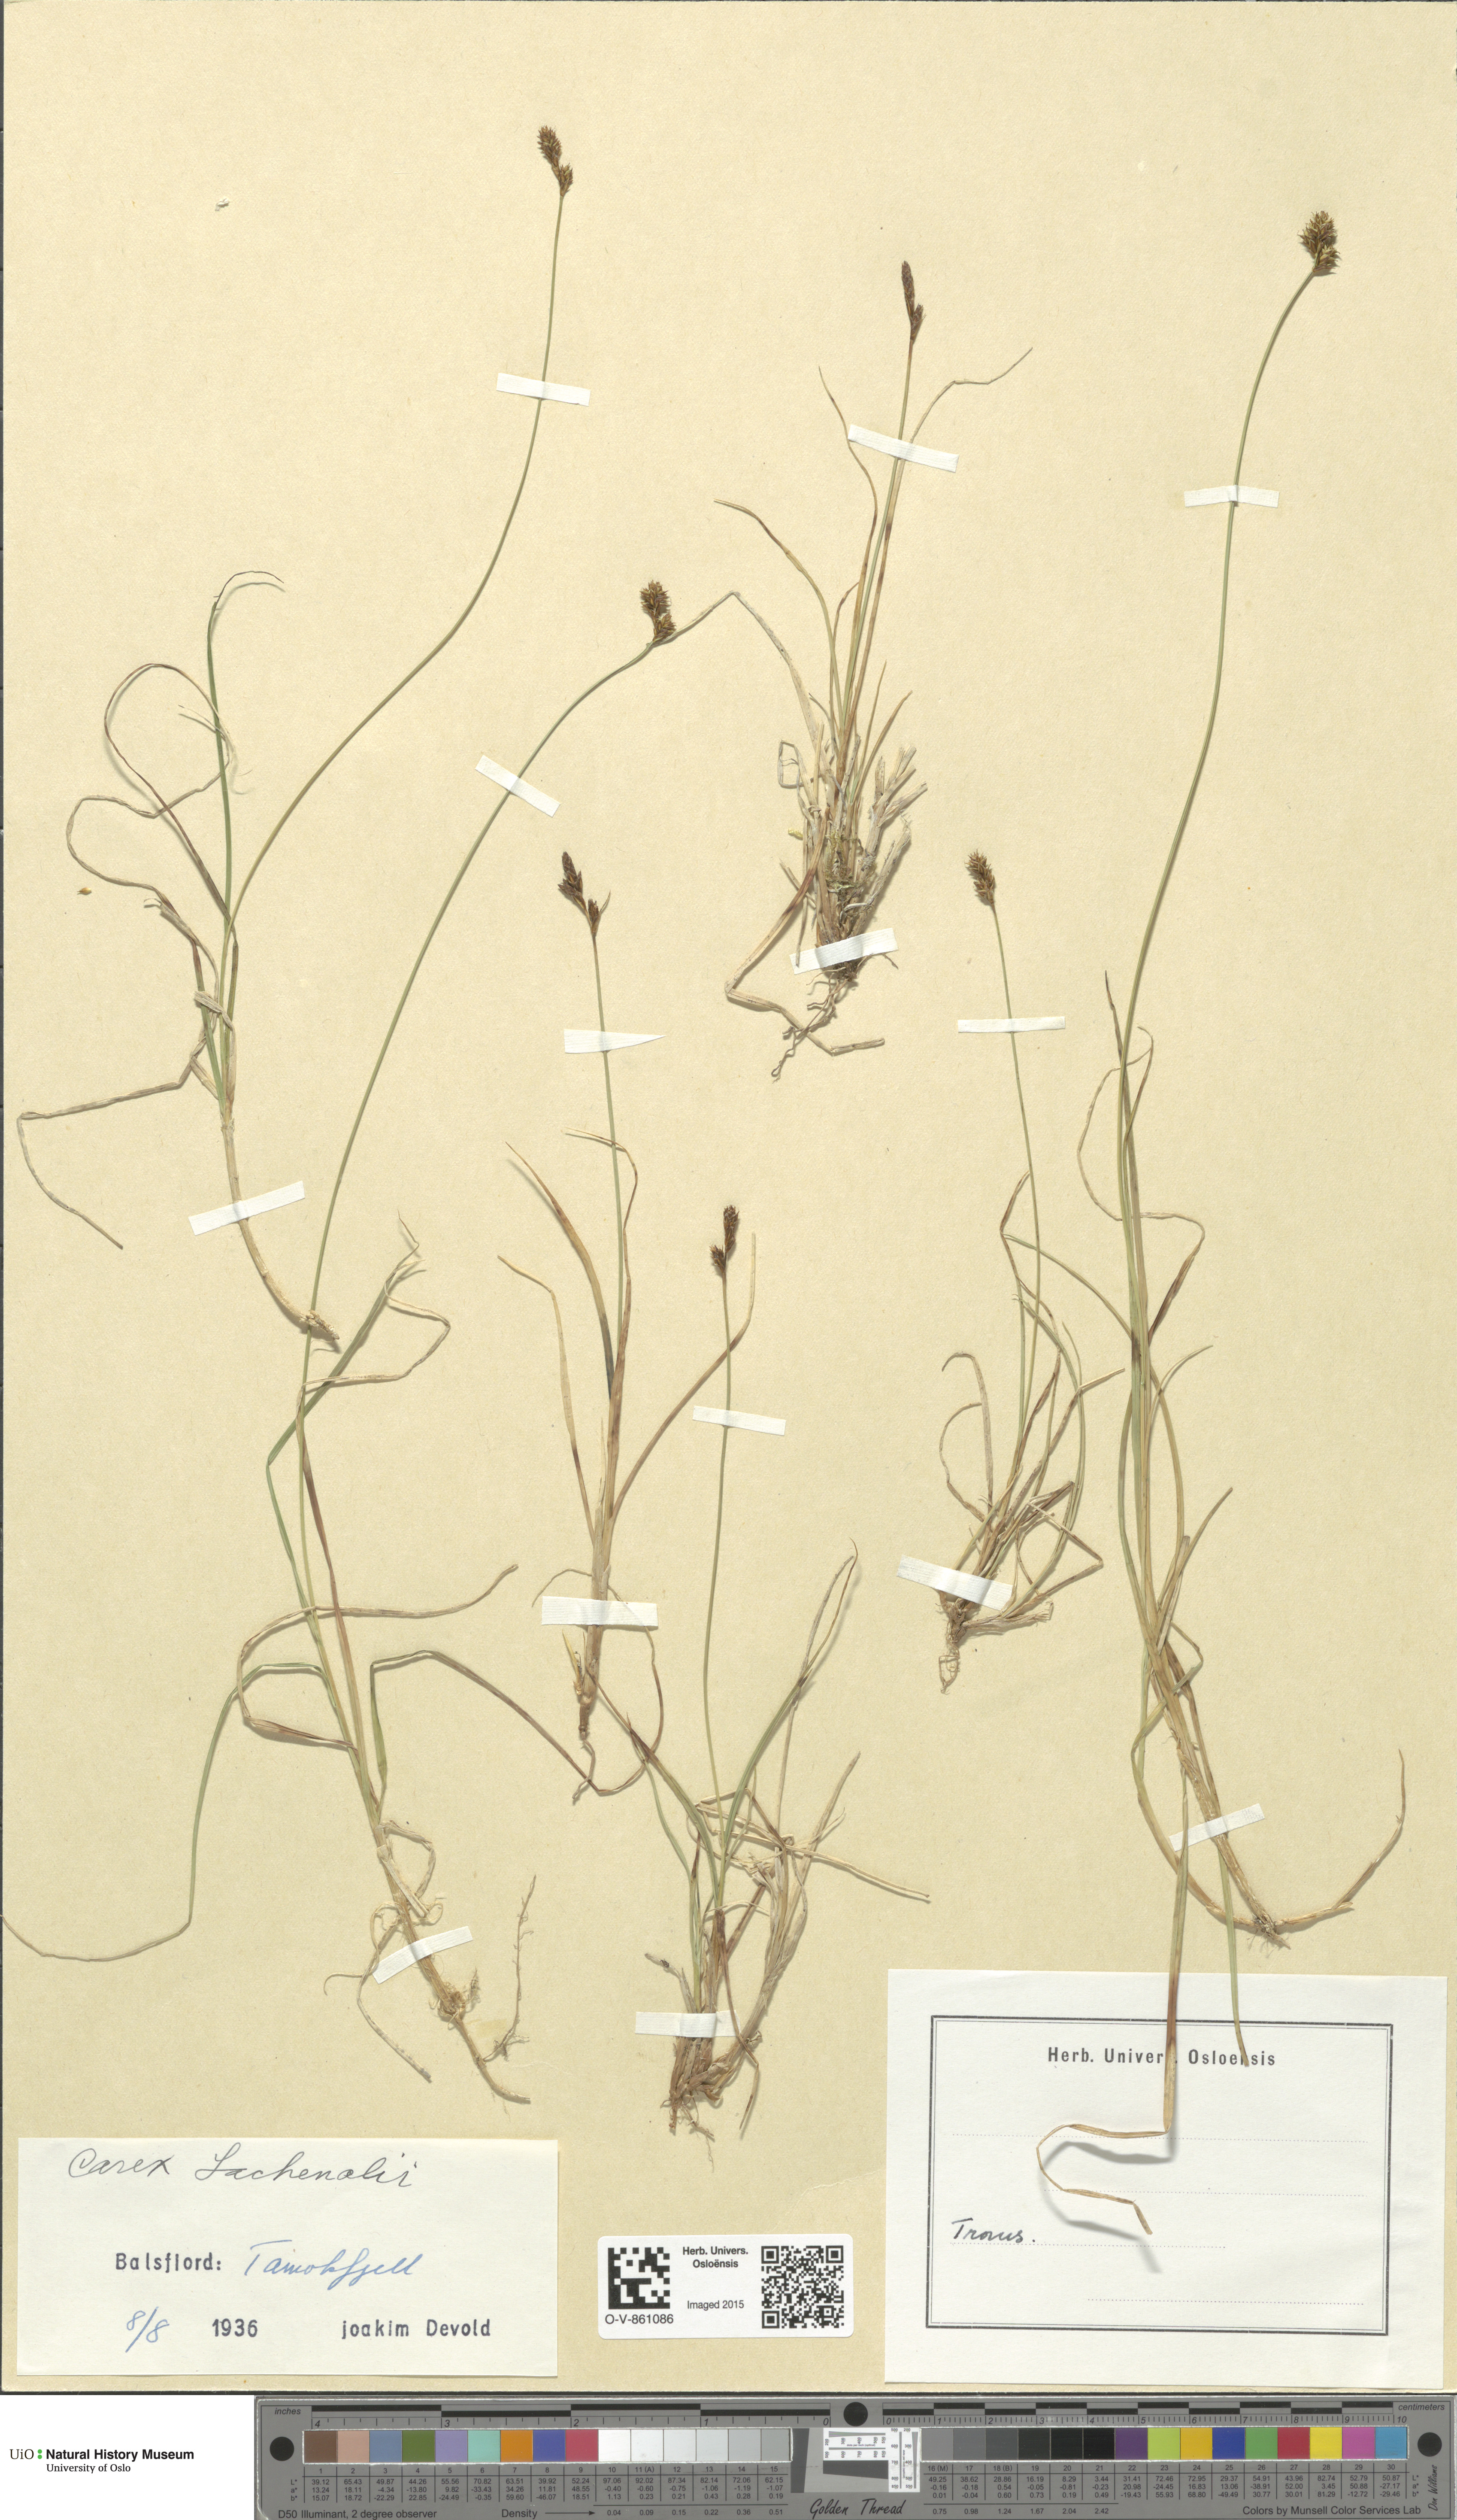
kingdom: Plantae
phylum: Tracheophyta
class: Liliopsida
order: Poales
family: Cyperaceae
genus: Carex
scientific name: Carex lachenalii
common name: Hare's-foot sedge
